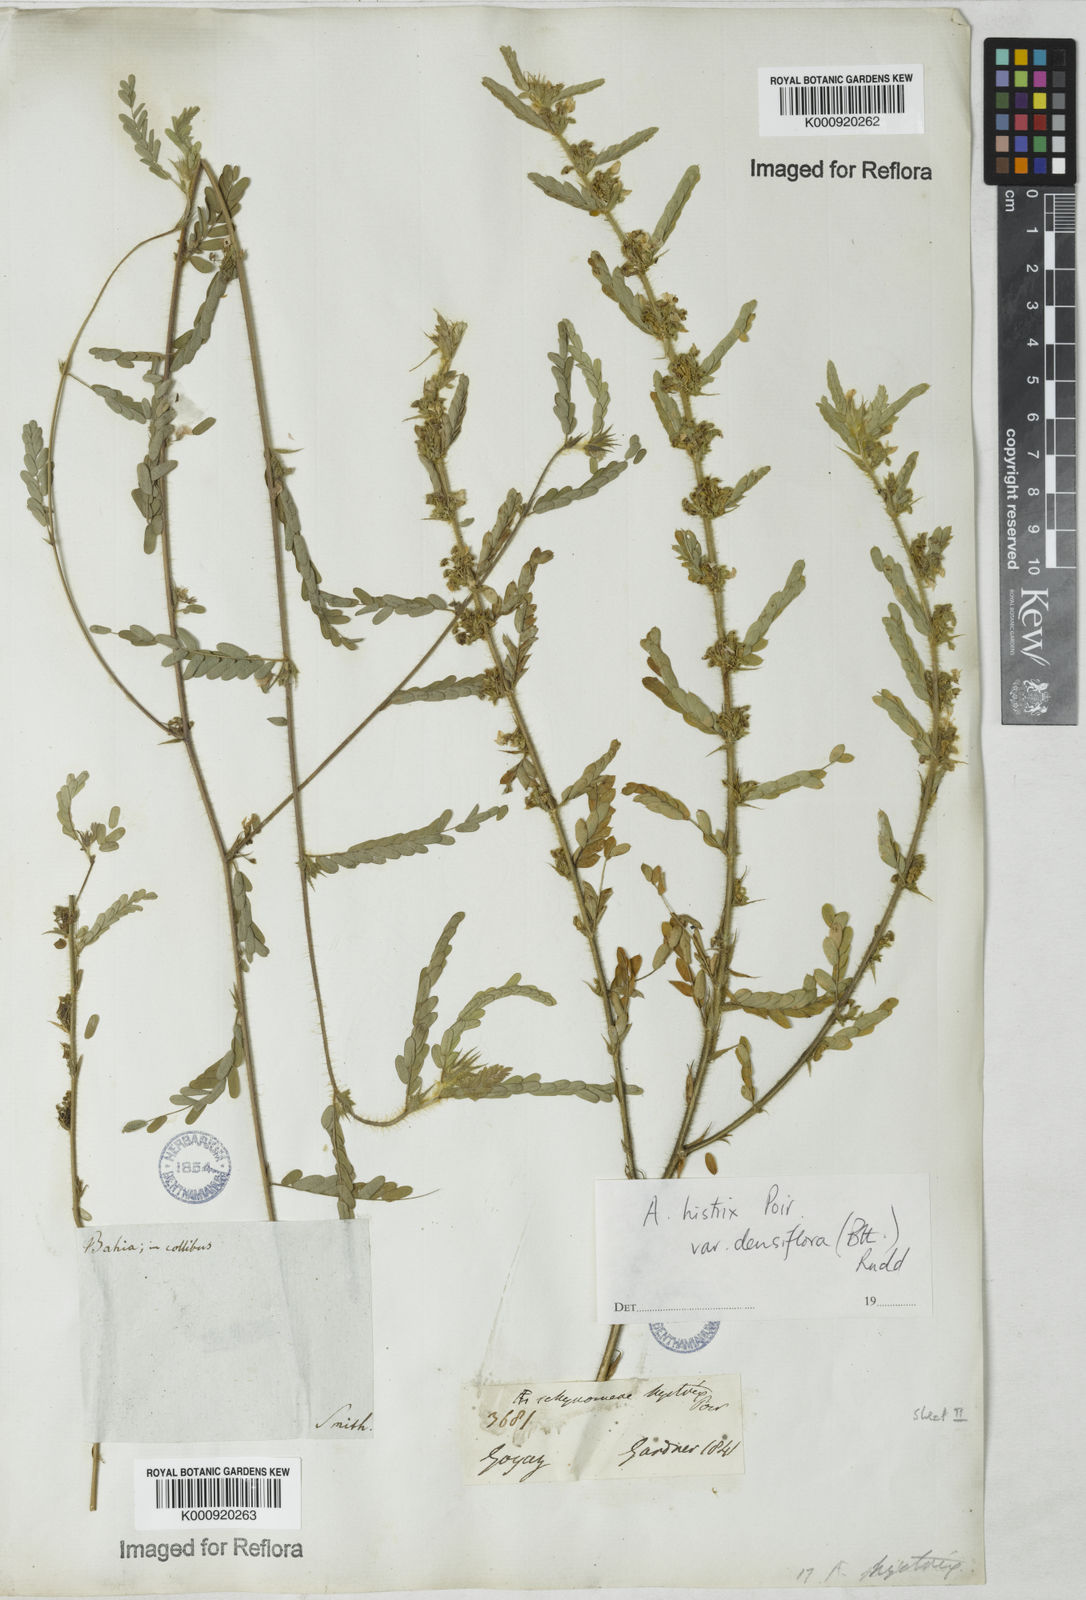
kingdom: Plantae
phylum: Tracheophyta
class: Magnoliopsida
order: Fabales
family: Fabaceae
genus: Ctenodon
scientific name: Ctenodon histrix
